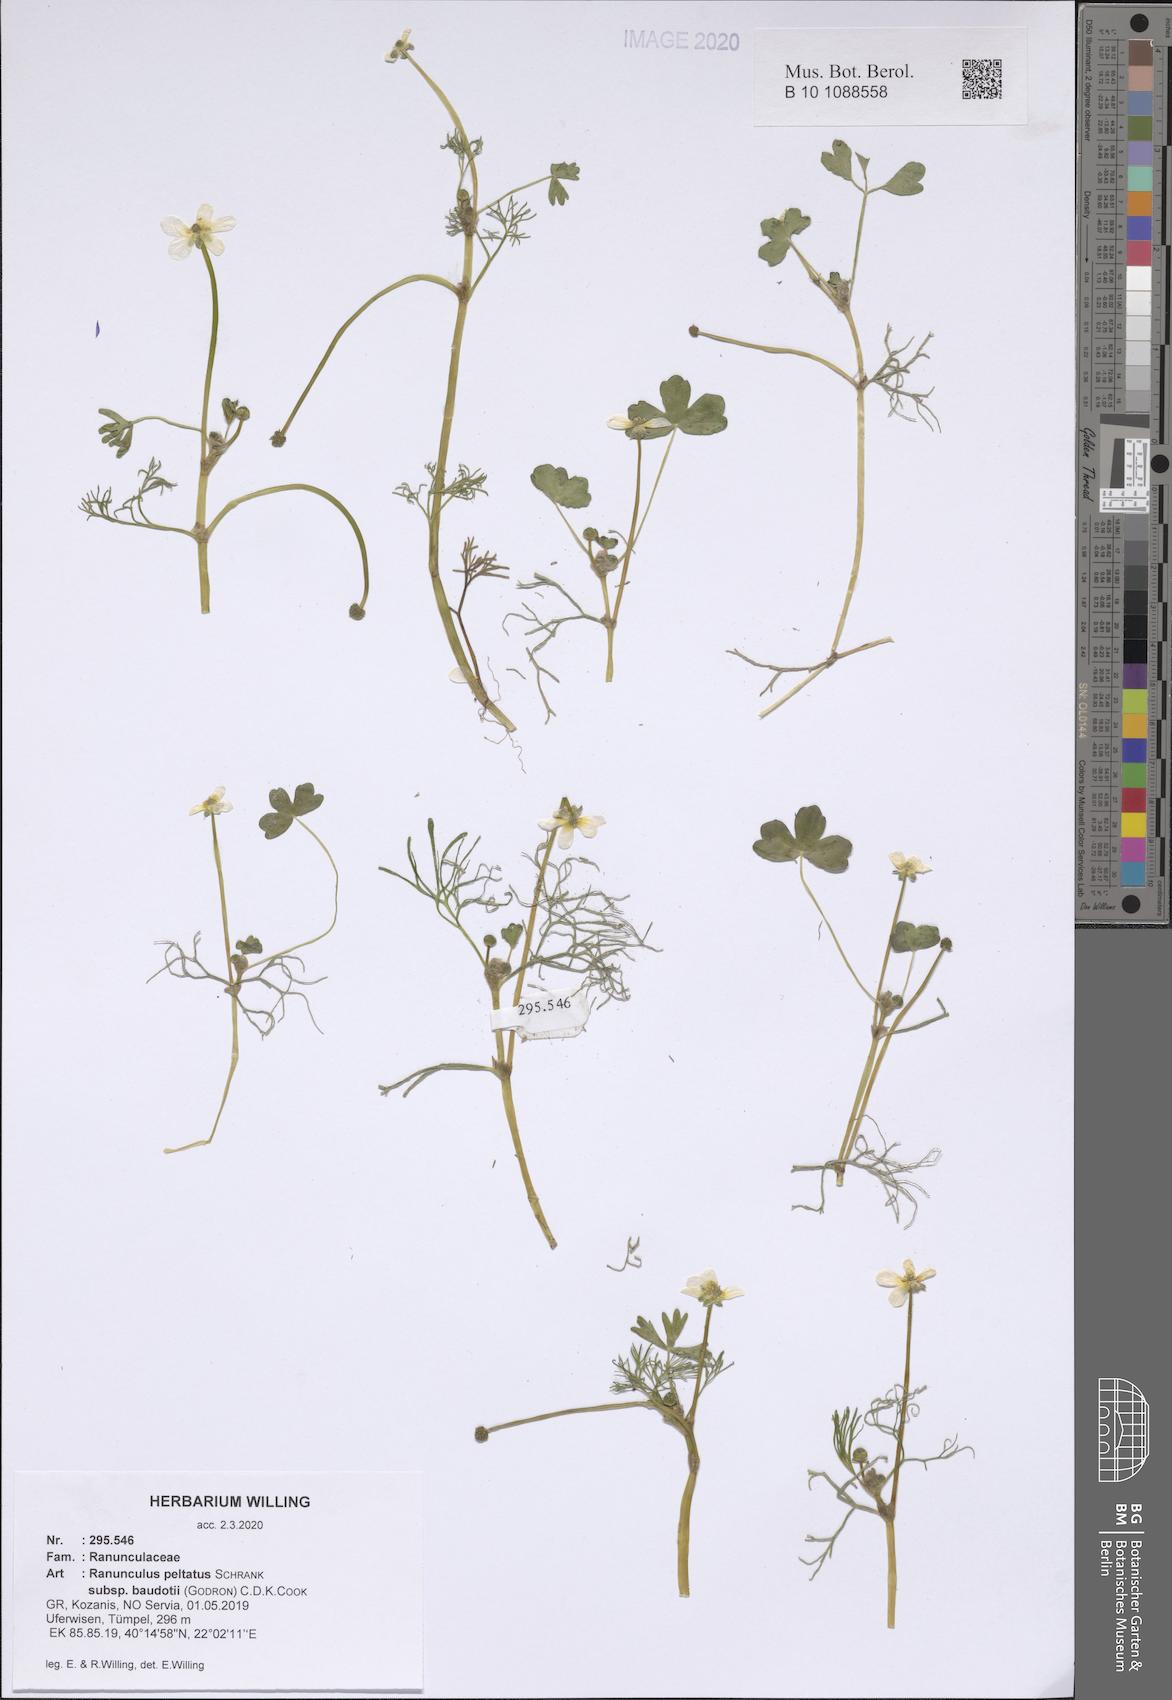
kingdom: Plantae
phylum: Tracheophyta
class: Magnoliopsida
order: Ranunculales
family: Ranunculaceae
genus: Ranunculus
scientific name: Ranunculus peltatus
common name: Pond water-crowfoot
